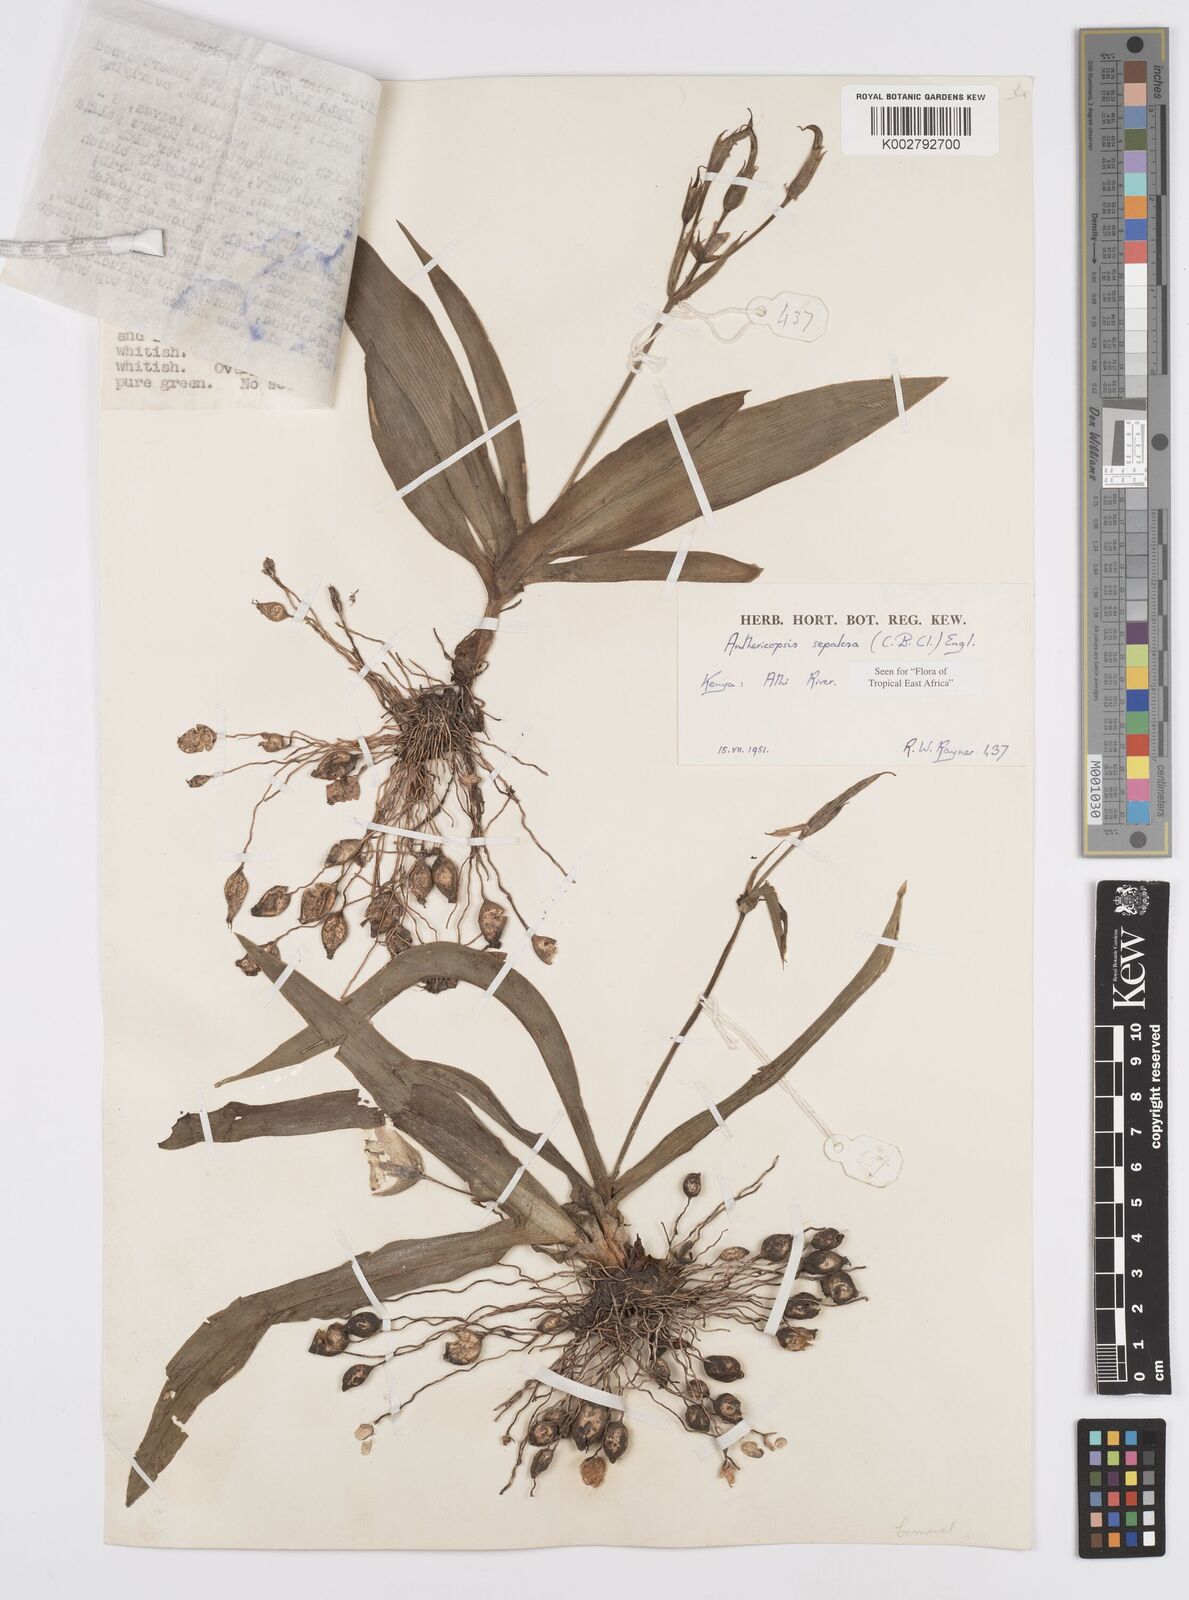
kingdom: Plantae
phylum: Tracheophyta
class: Liliopsida
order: Commelinales
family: Commelinaceae
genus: Anthericopsis
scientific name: Anthericopsis sepalosa
